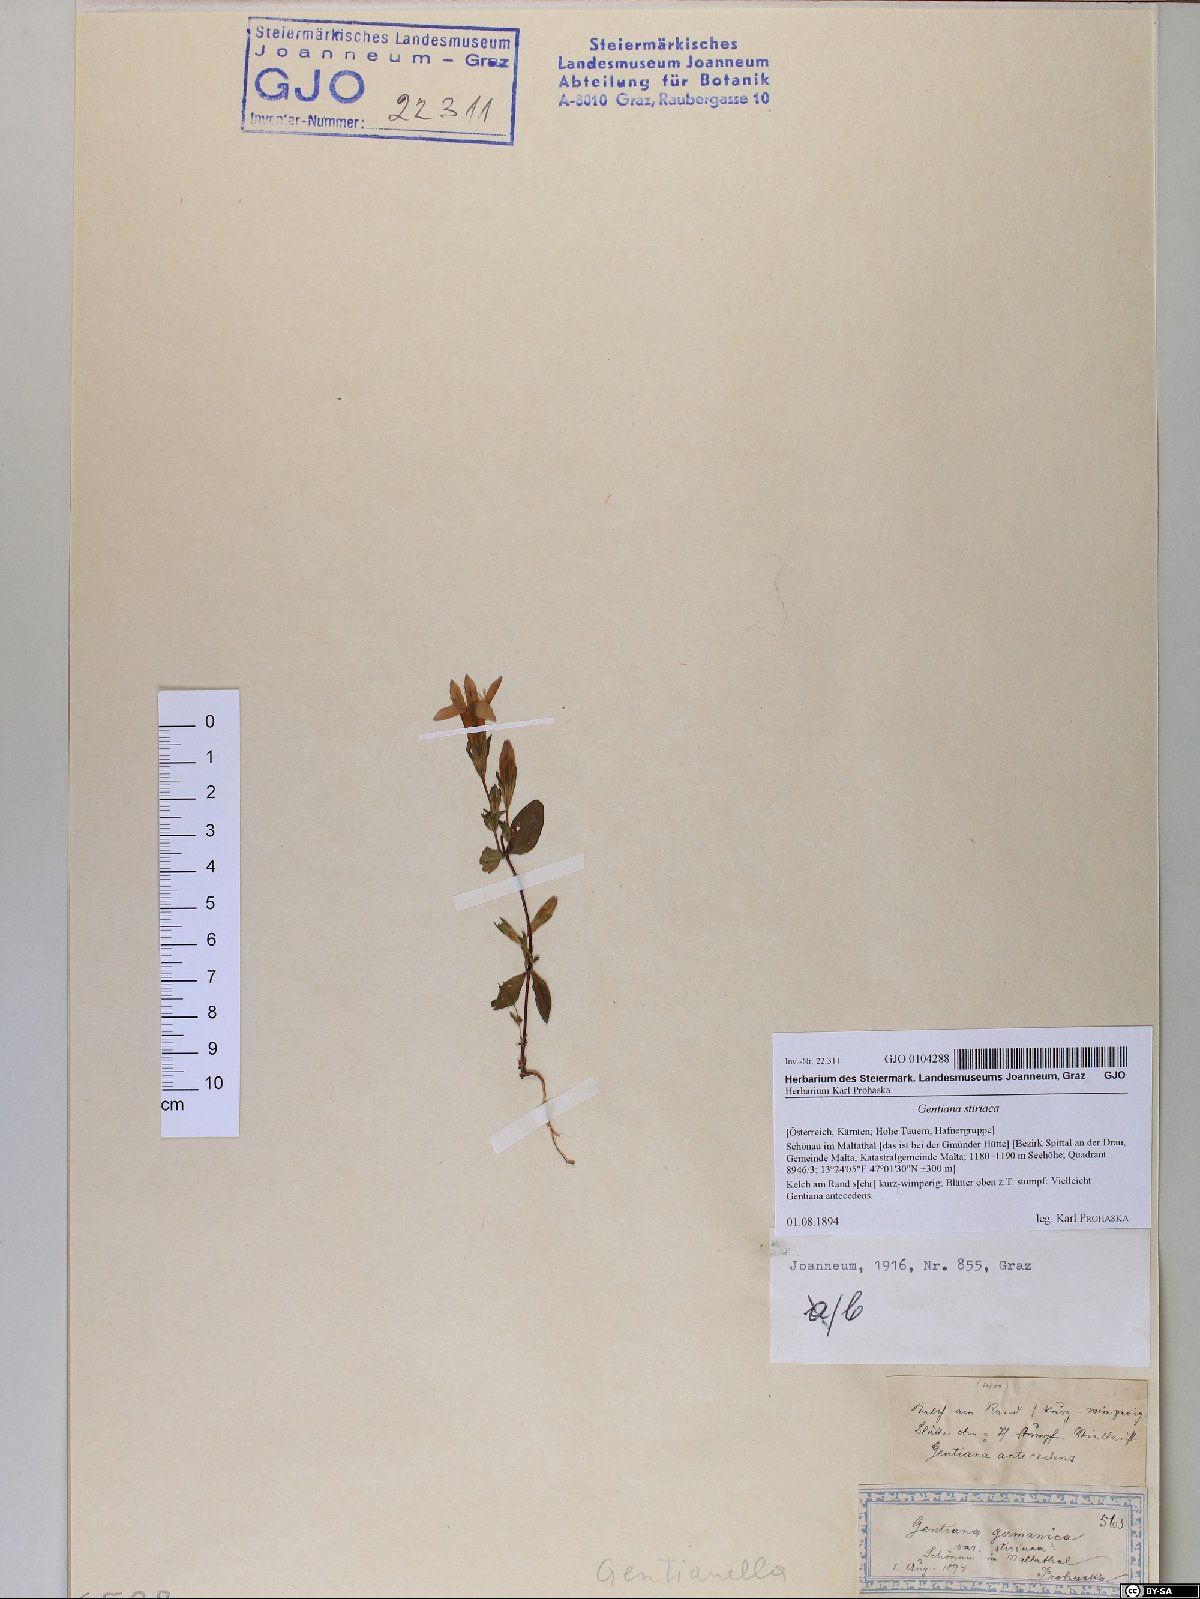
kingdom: Plantae
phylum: Tracheophyta
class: Magnoliopsida
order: Gentianales
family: Gentianaceae
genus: Gentianella
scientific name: Gentianella rhaetica
